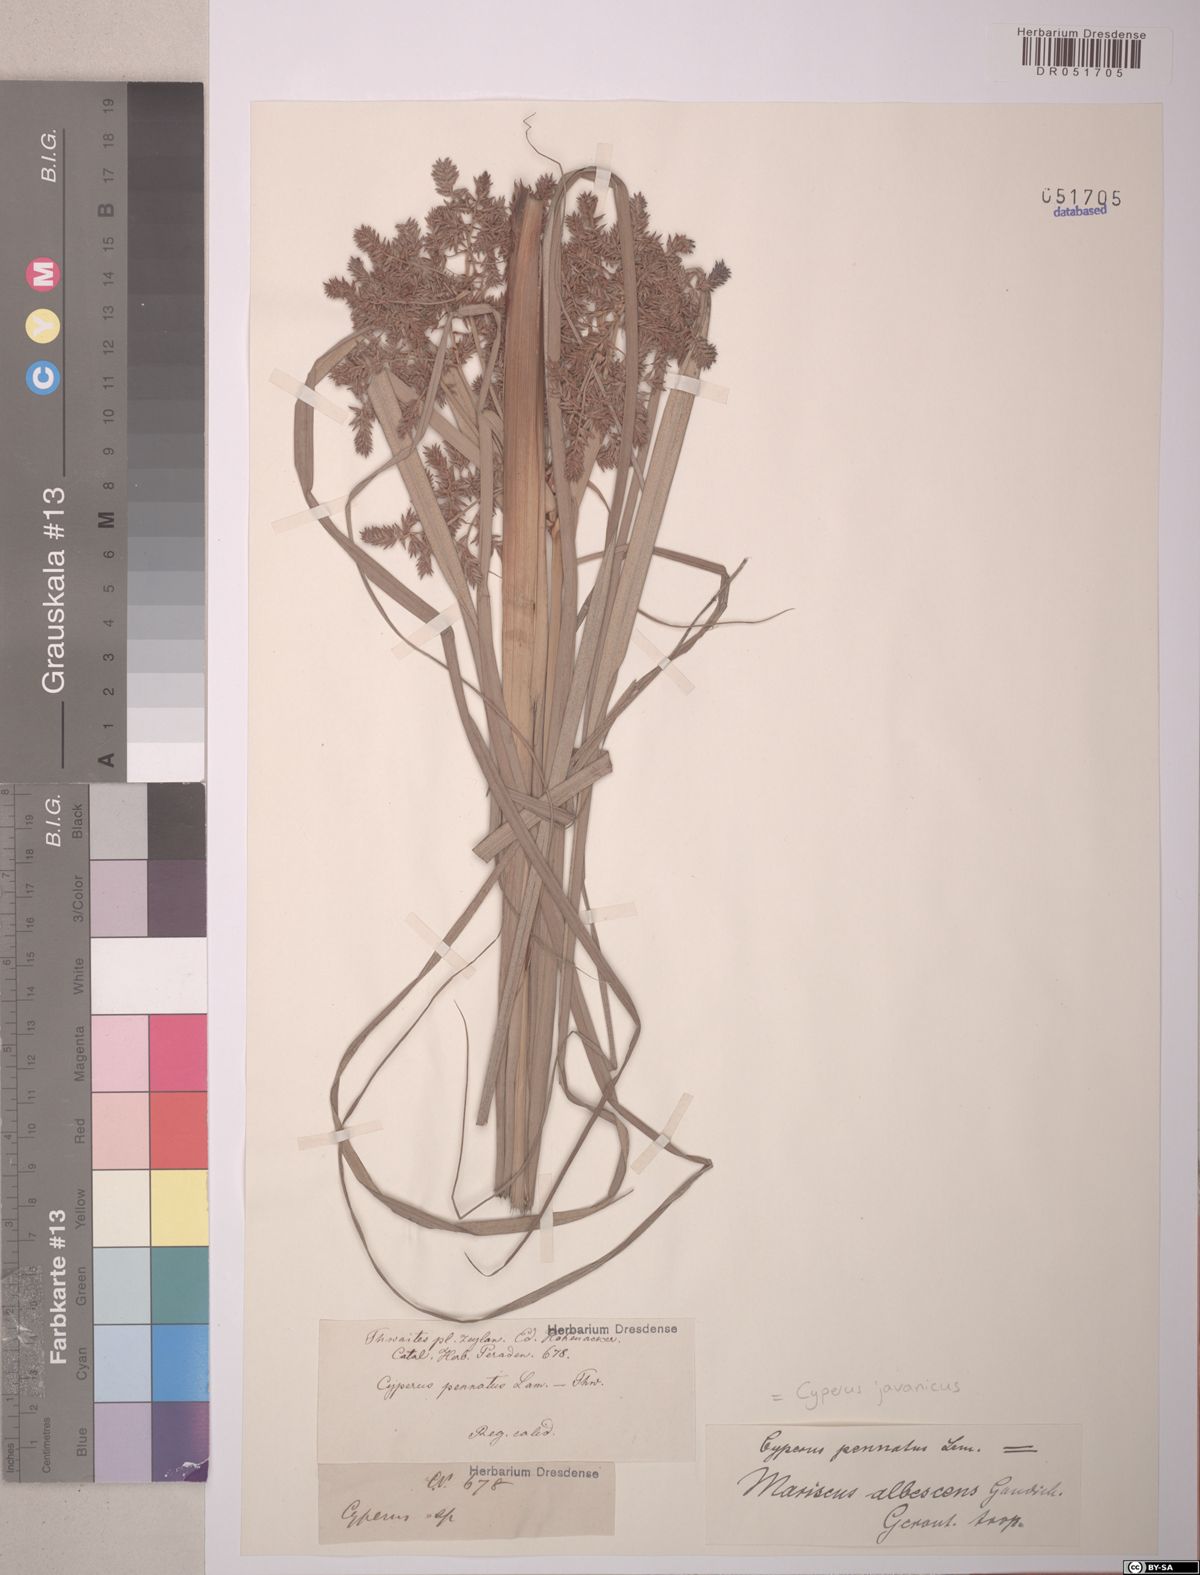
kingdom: Plantae
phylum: Tracheophyta
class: Liliopsida
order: Poales
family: Cyperaceae
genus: Cyperus
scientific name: Cyperus javanicus
